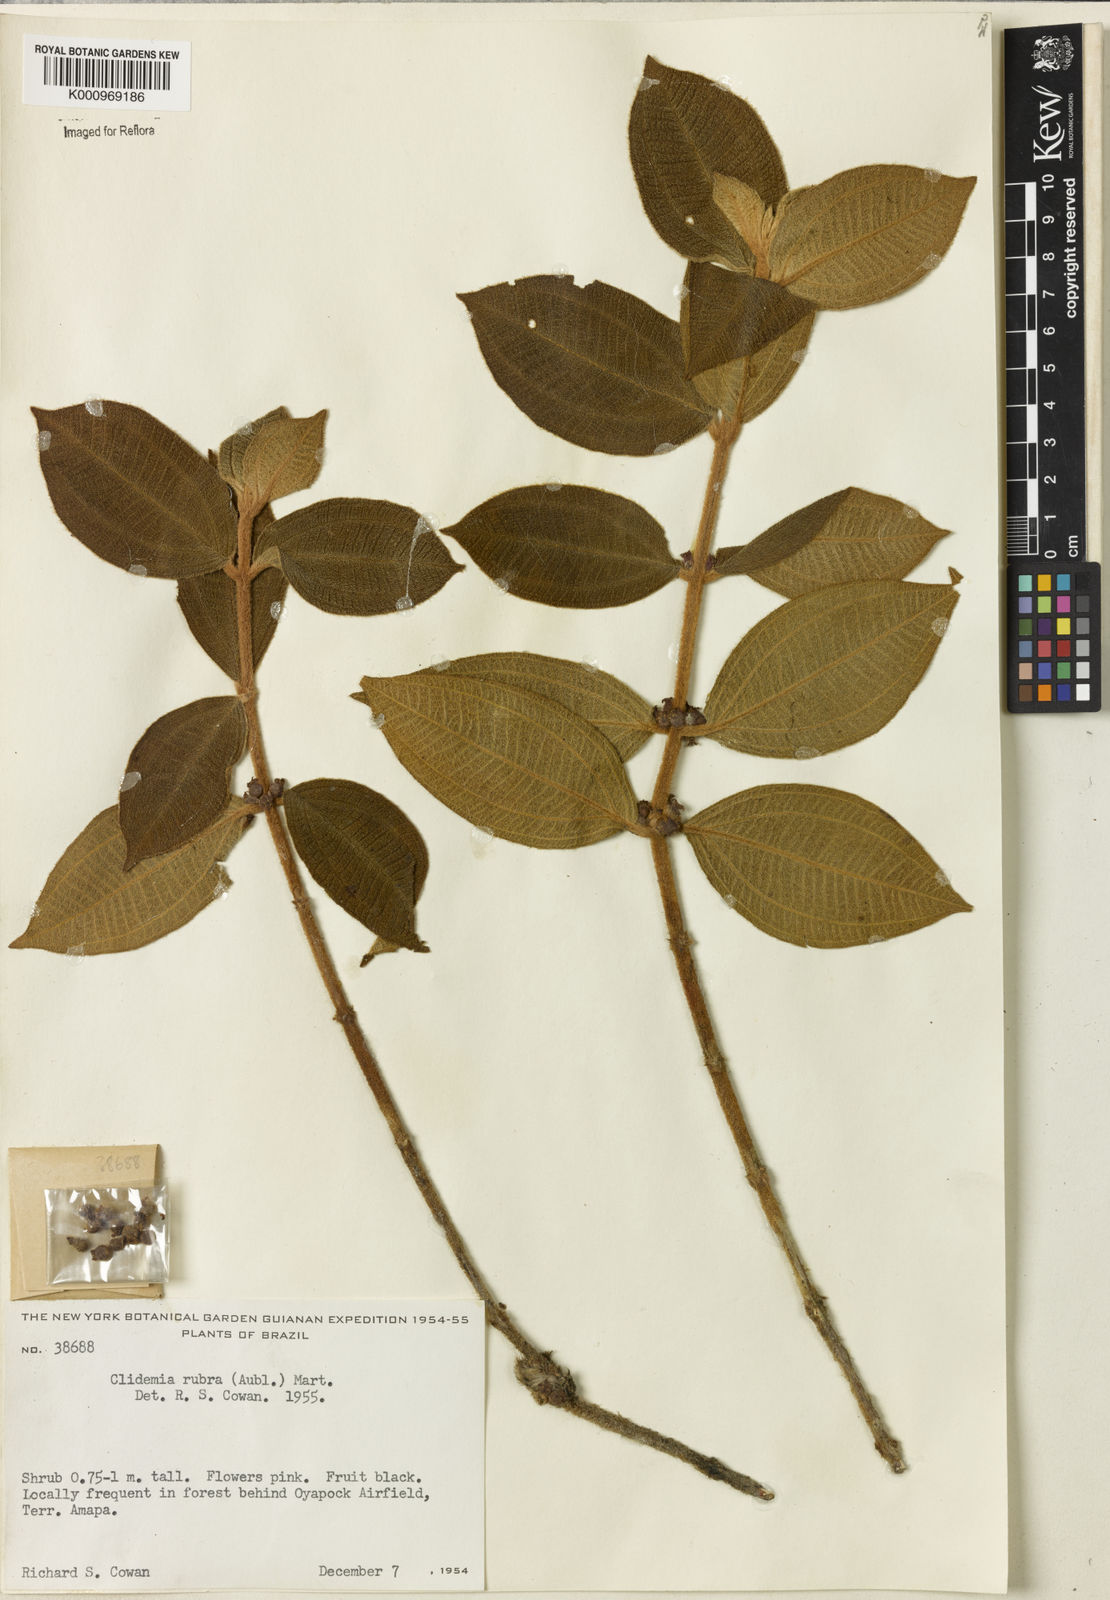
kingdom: Plantae
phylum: Tracheophyta
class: Magnoliopsida
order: Myrtales
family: Melastomataceae
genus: Miconia
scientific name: Miconia rubra
